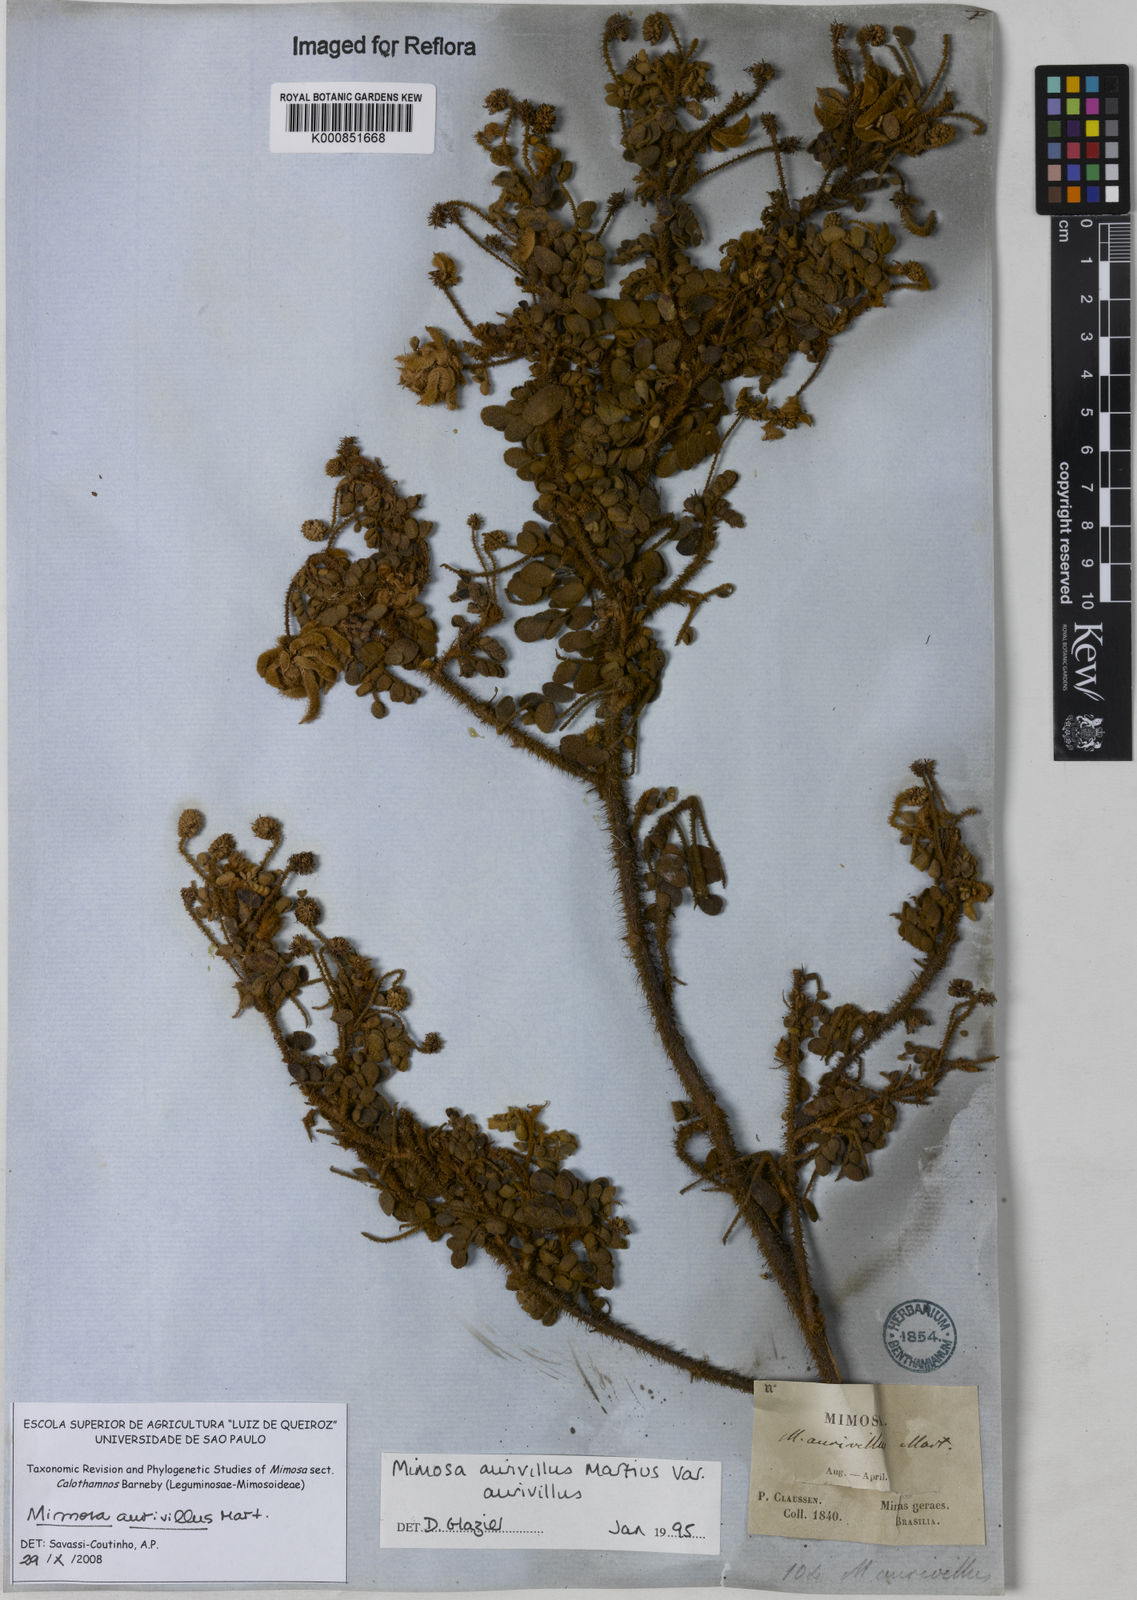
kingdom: Plantae
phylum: Tracheophyta
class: Magnoliopsida
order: Fabales
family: Fabaceae
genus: Mimosa
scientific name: Mimosa aurivillus
